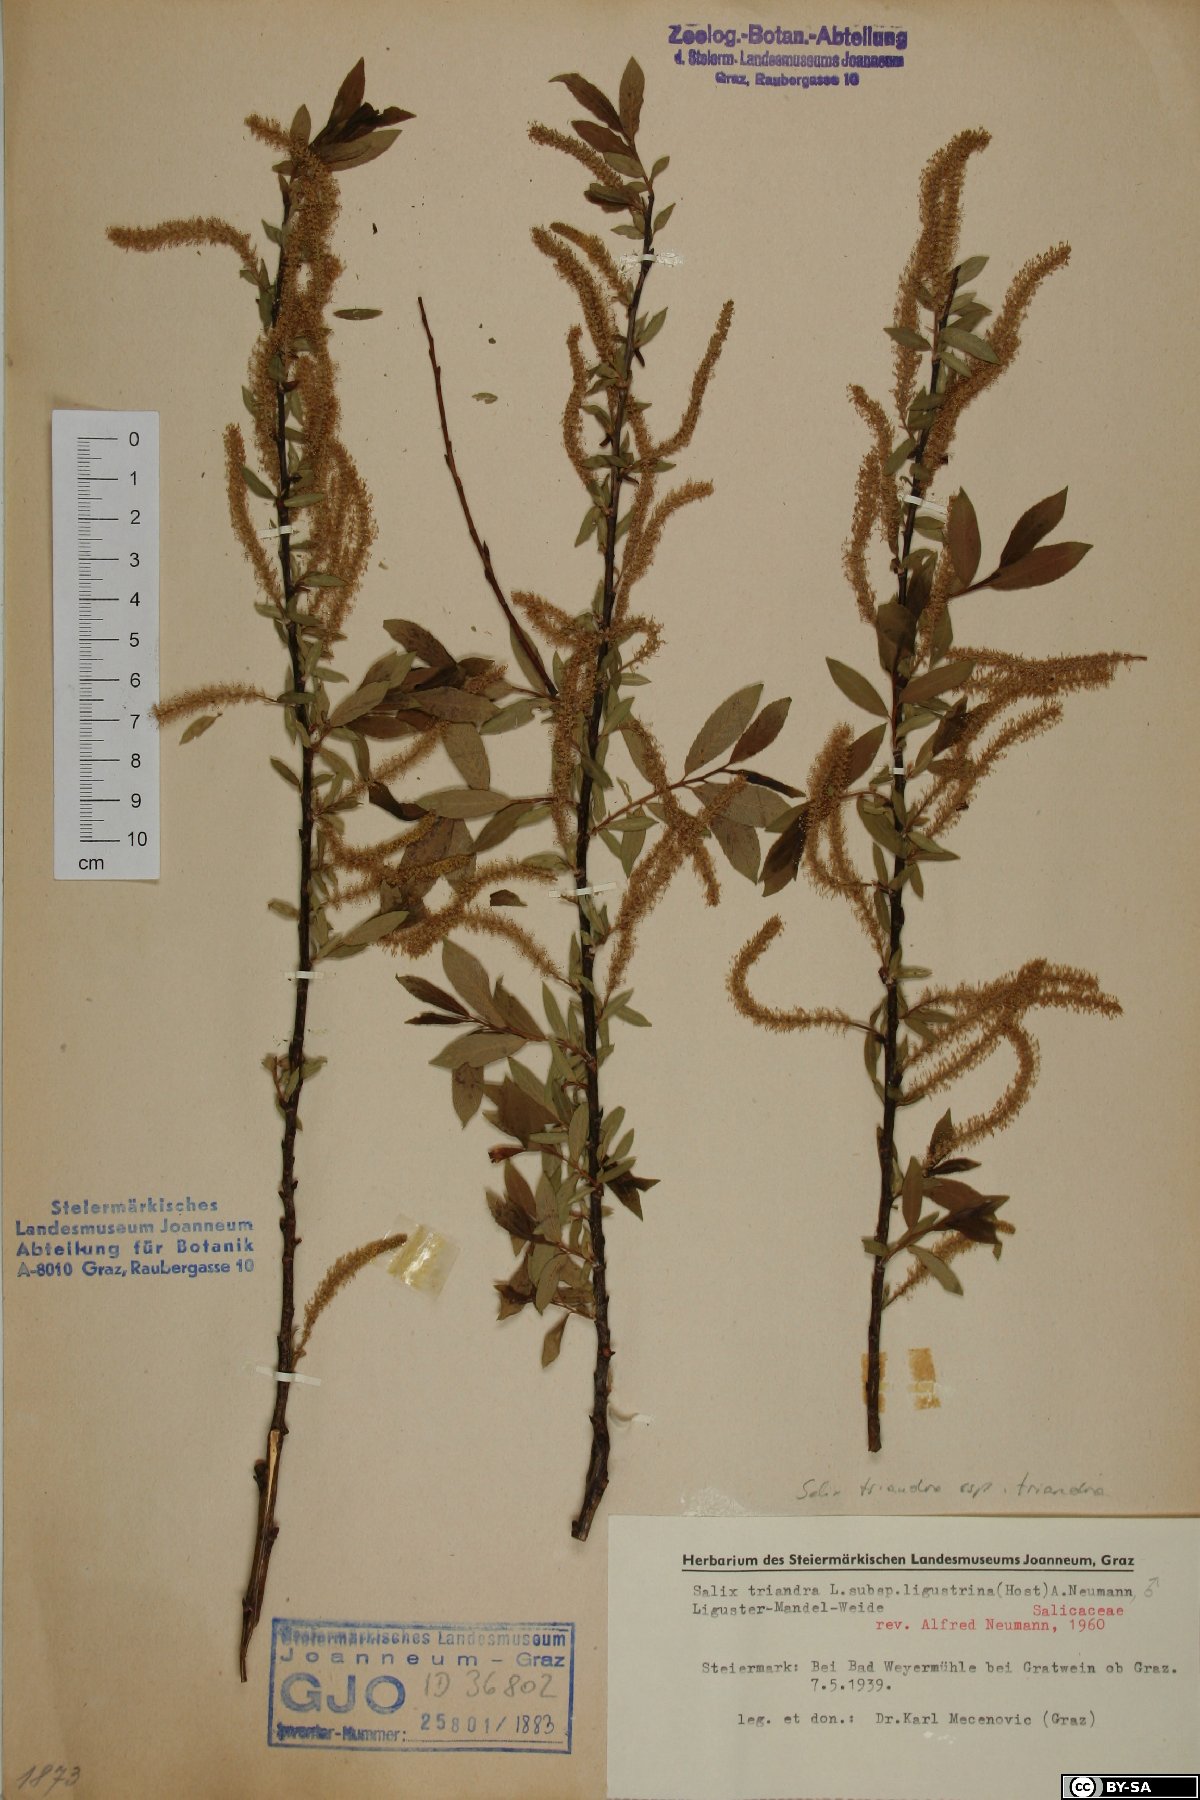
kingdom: Plantae
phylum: Tracheophyta
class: Magnoliopsida
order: Malpighiales
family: Salicaceae
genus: Salix
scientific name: Salix triandra
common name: Almond willow
